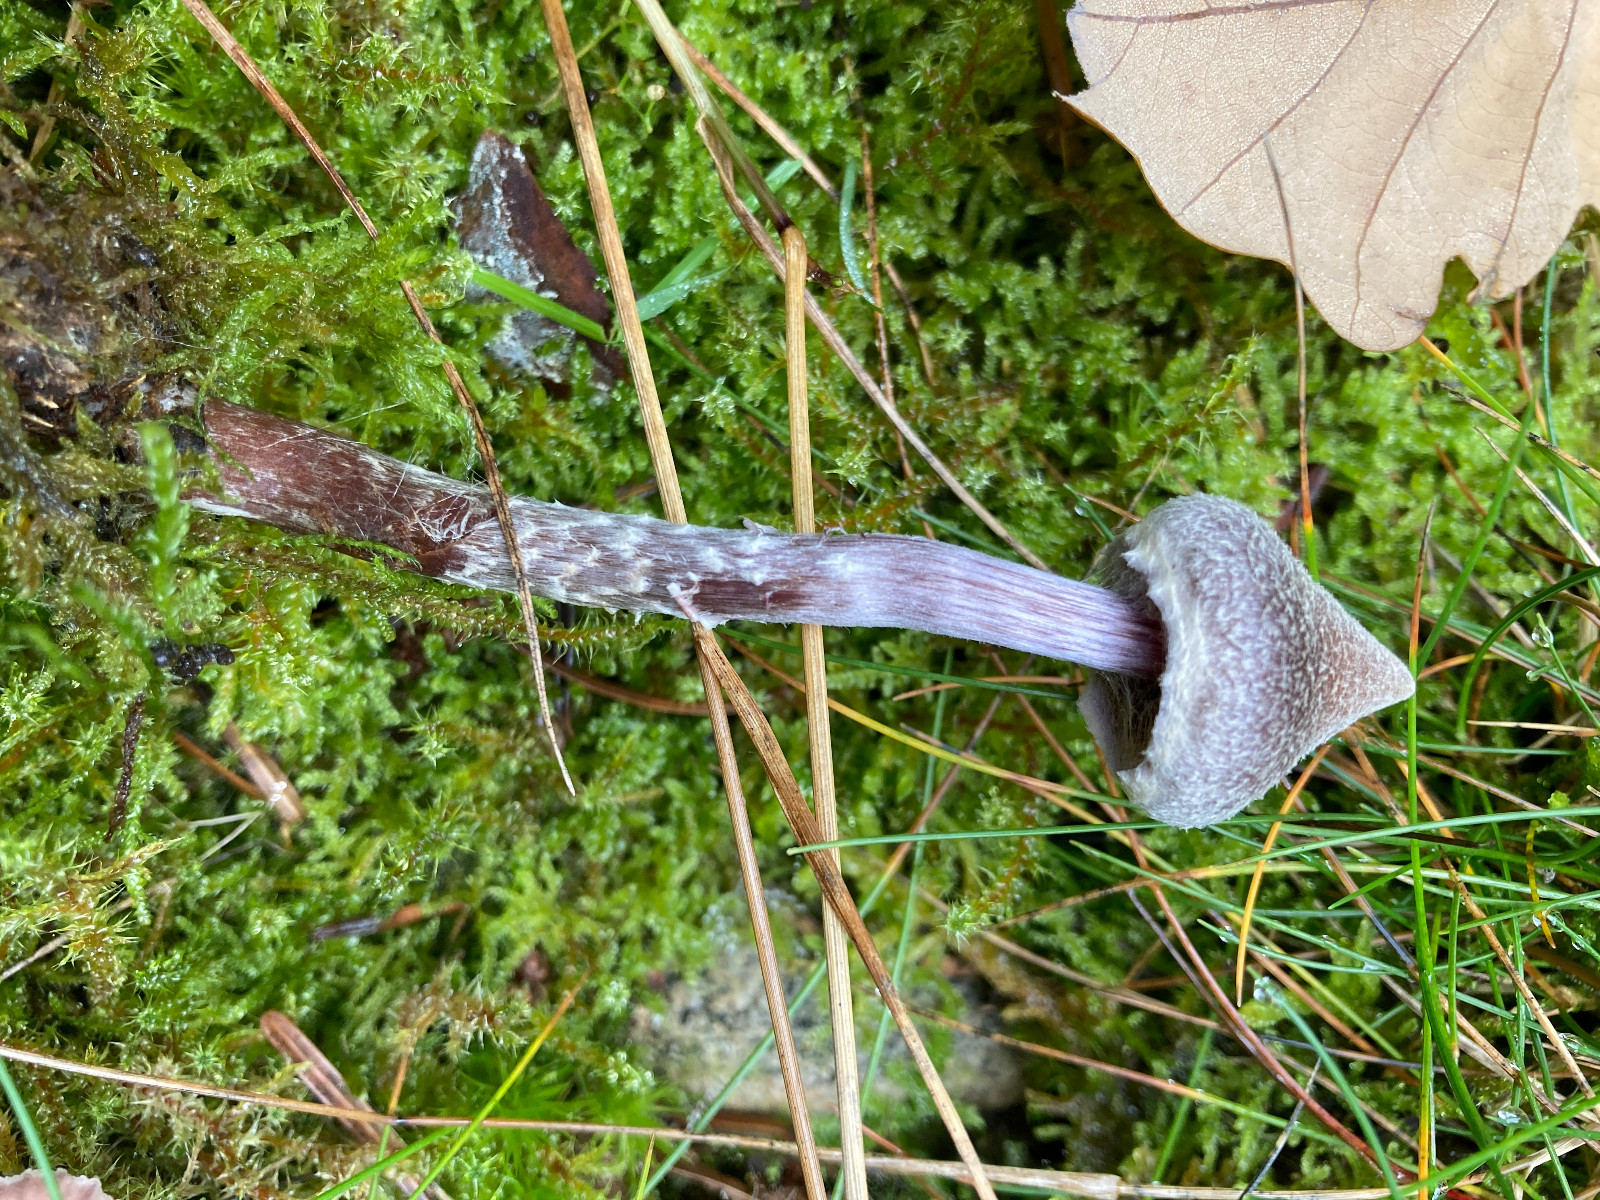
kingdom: Fungi
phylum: Basidiomycota
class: Agaricomycetes
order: Agaricales
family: Cortinariaceae
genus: Cortinarius
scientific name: Cortinarius flexipes
